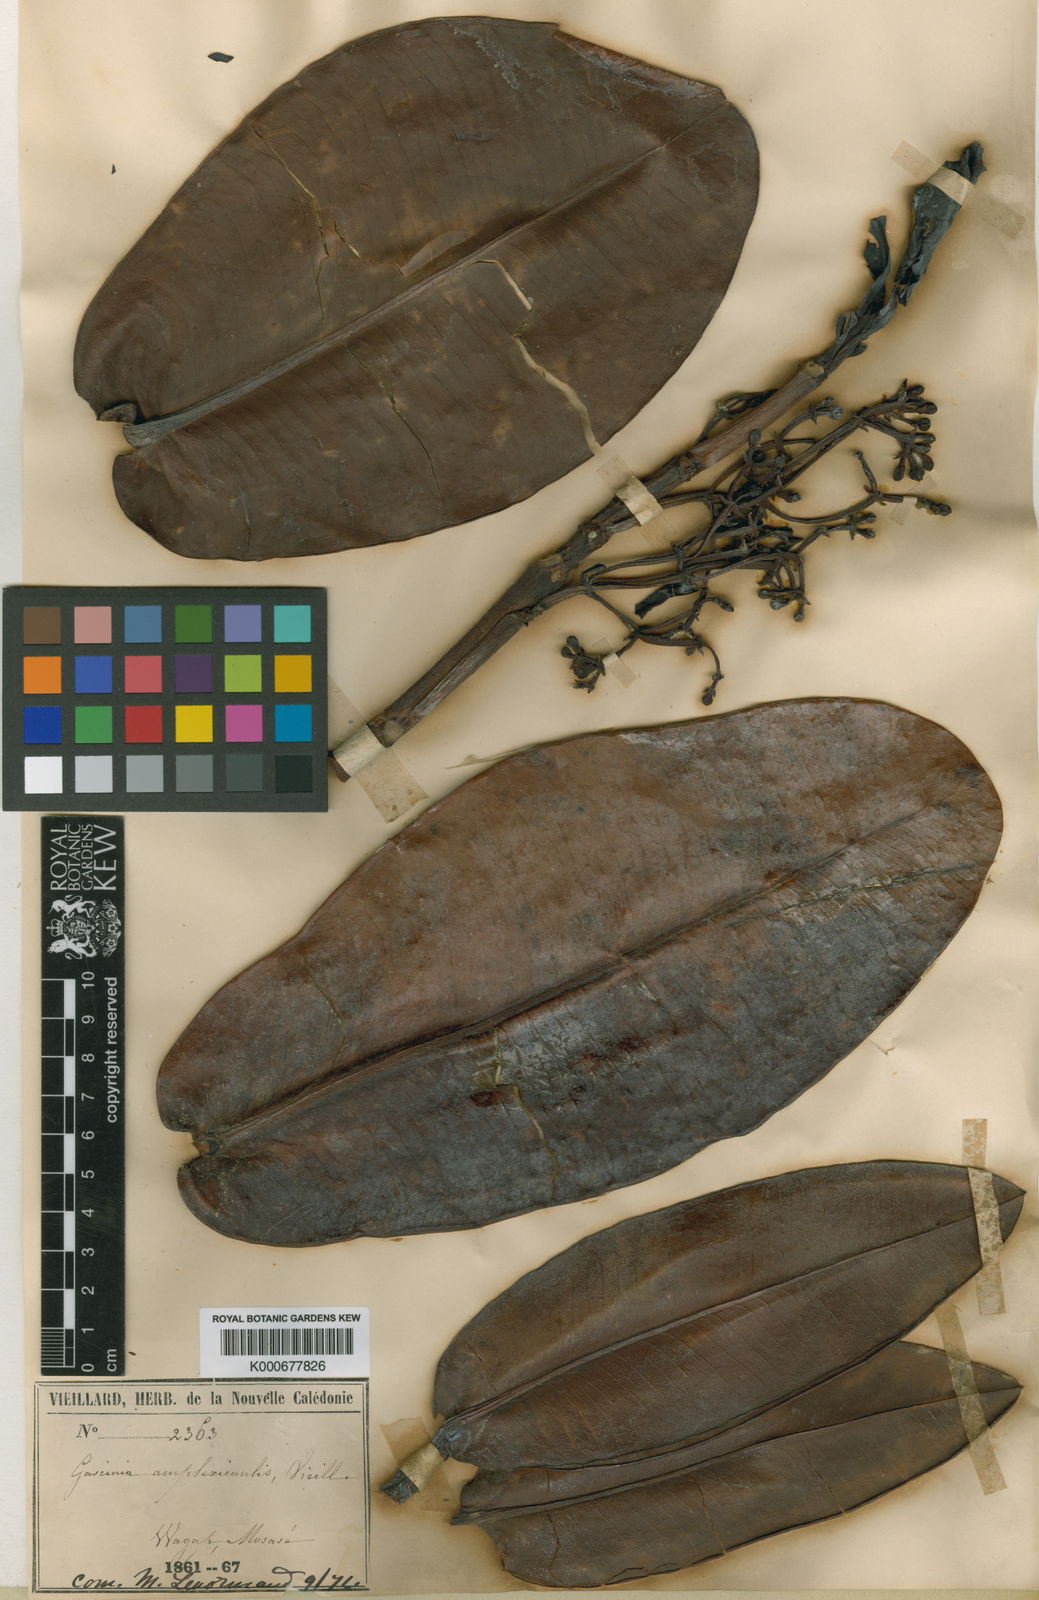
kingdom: Plantae
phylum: Tracheophyta
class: Magnoliopsida
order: Malpighiales
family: Clusiaceae
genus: Garcinia
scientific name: Garcinia amplexicaulis
